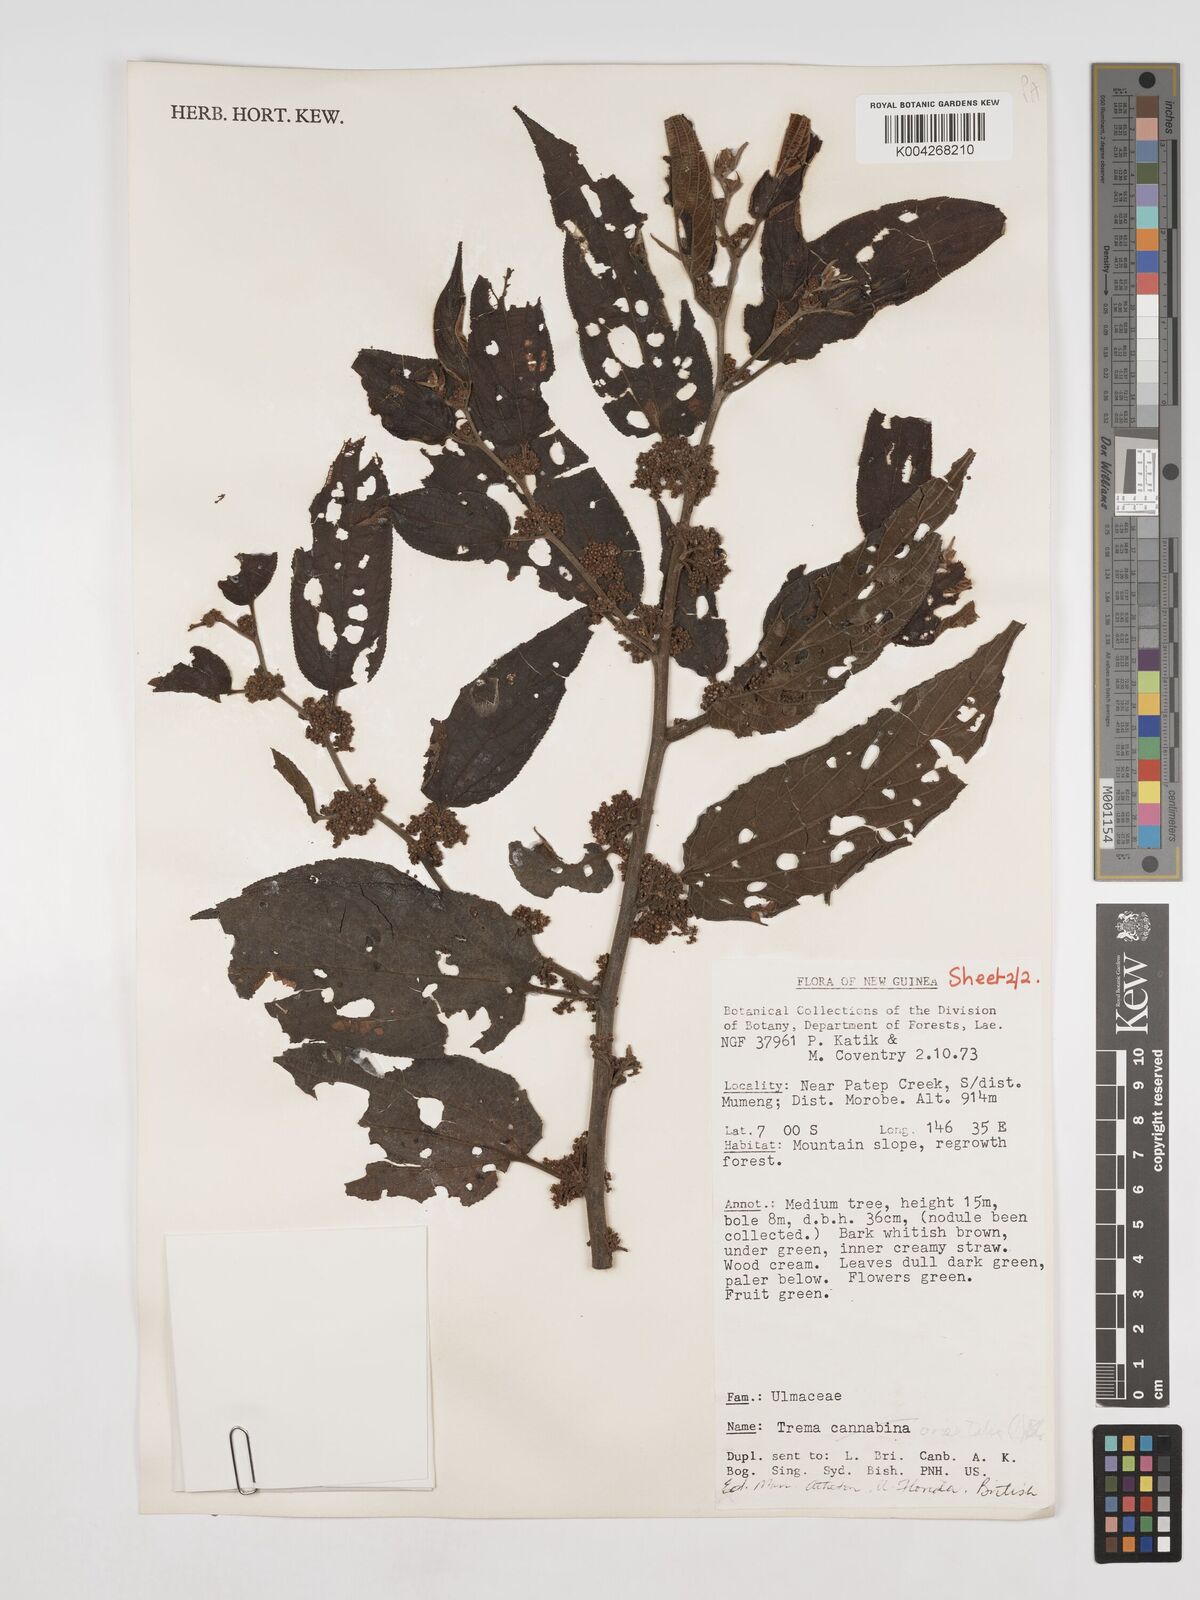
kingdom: Plantae
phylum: Tracheophyta
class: Magnoliopsida
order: Rosales
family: Cannabaceae
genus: Trema
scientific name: Trema orientale
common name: Indian charcoal tree
